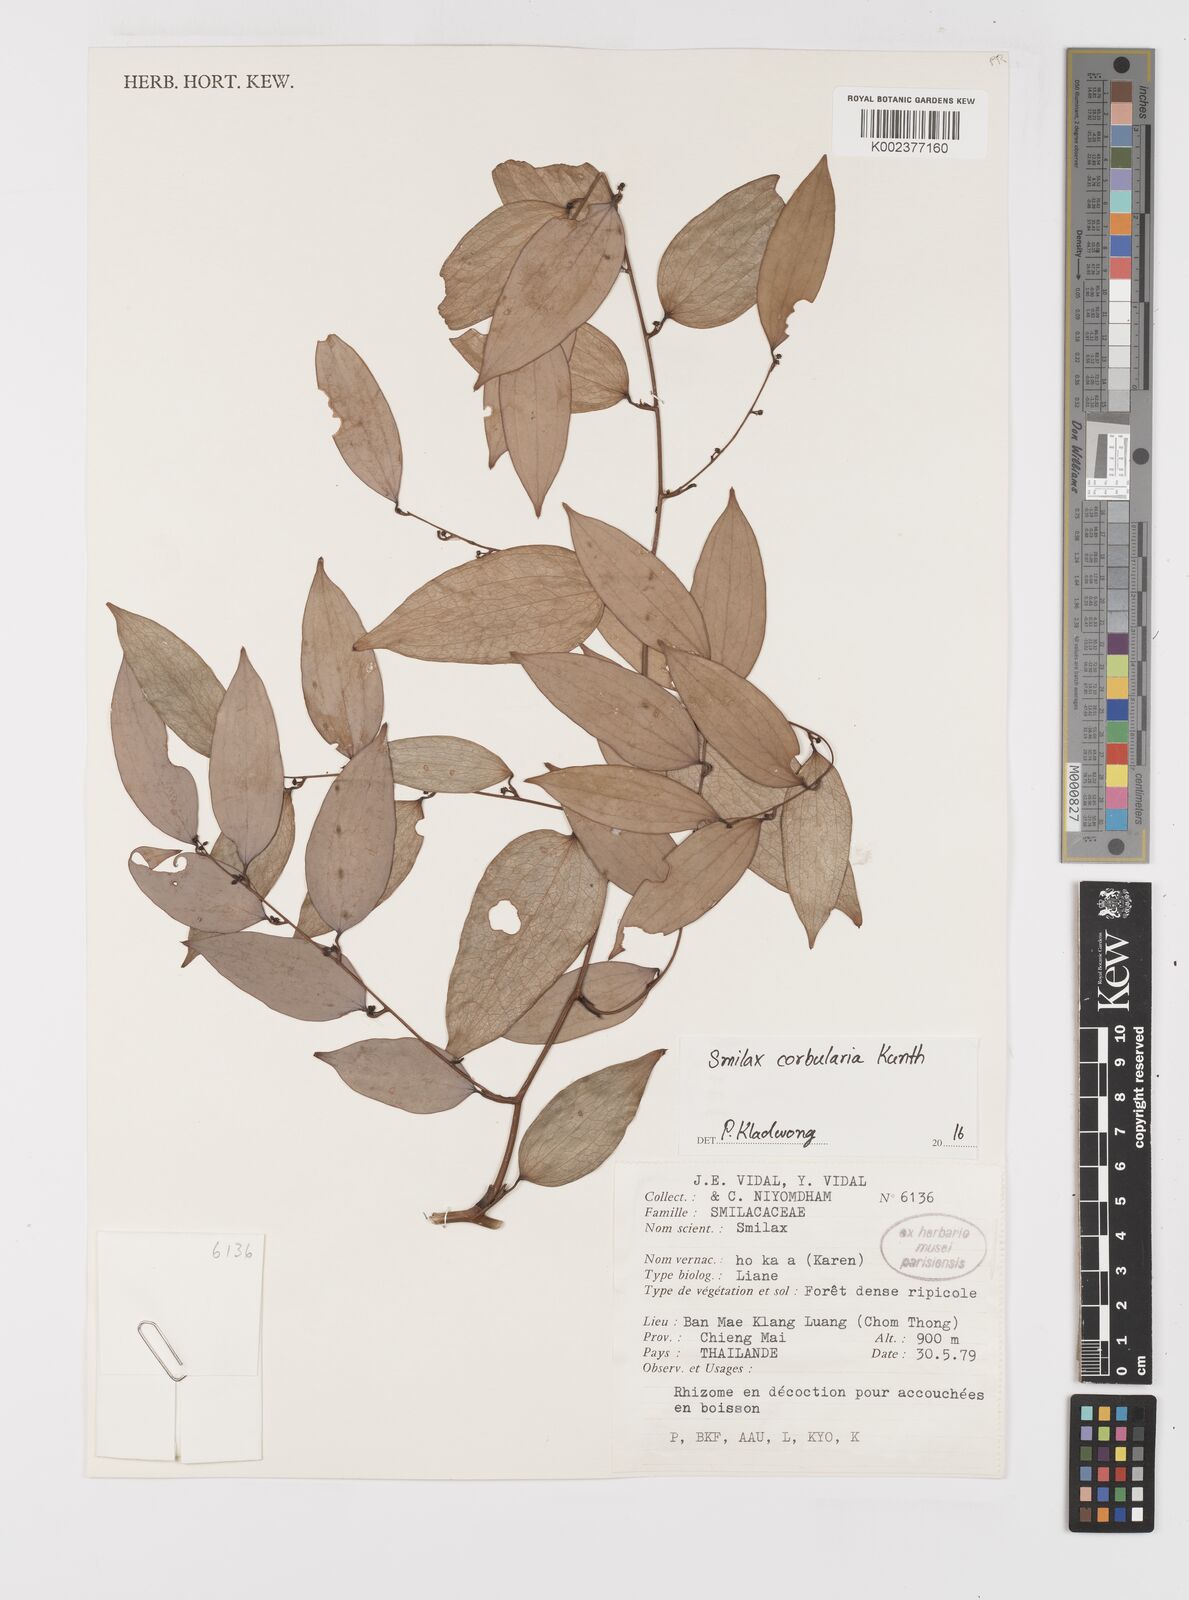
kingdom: Plantae
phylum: Tracheophyta
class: Liliopsida
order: Liliales
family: Smilacaceae
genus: Smilax
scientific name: Smilax corbularia
